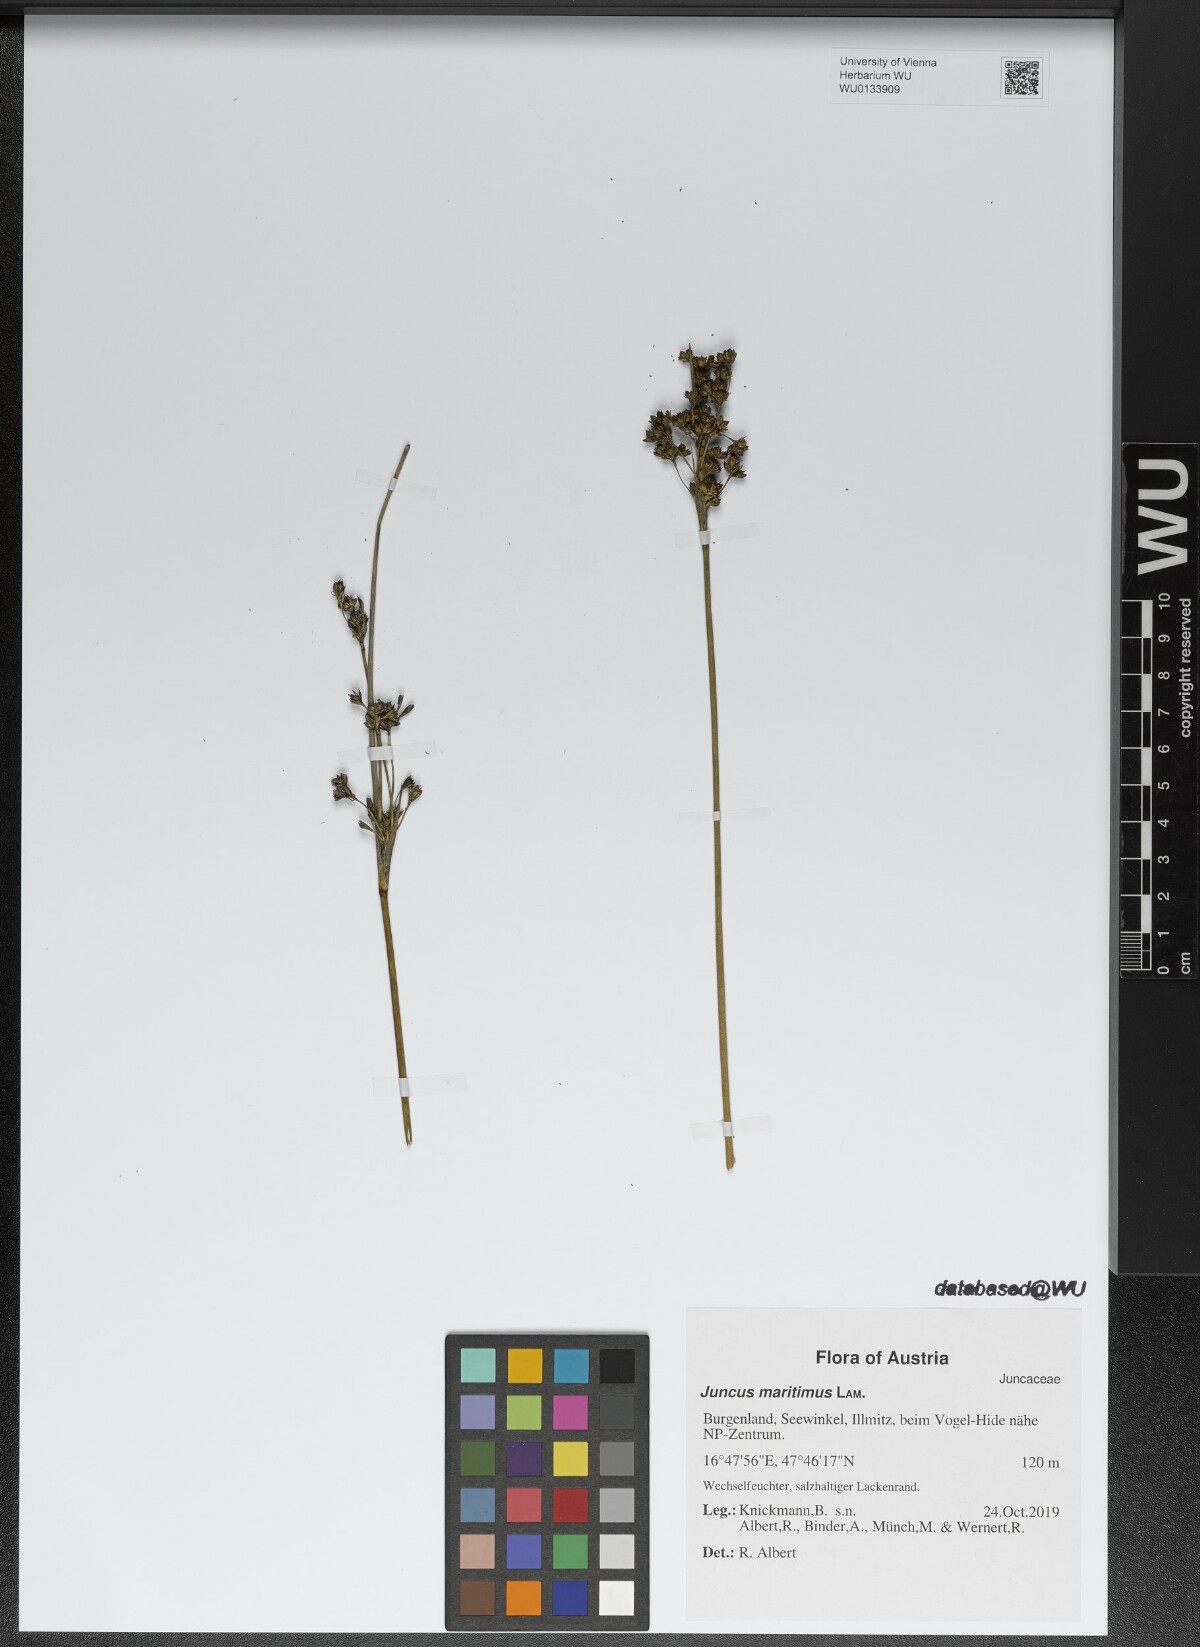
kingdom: Plantae
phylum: Tracheophyta
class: Liliopsida
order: Poales
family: Juncaceae
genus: Juncus
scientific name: Juncus maritimus
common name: Sea rush
